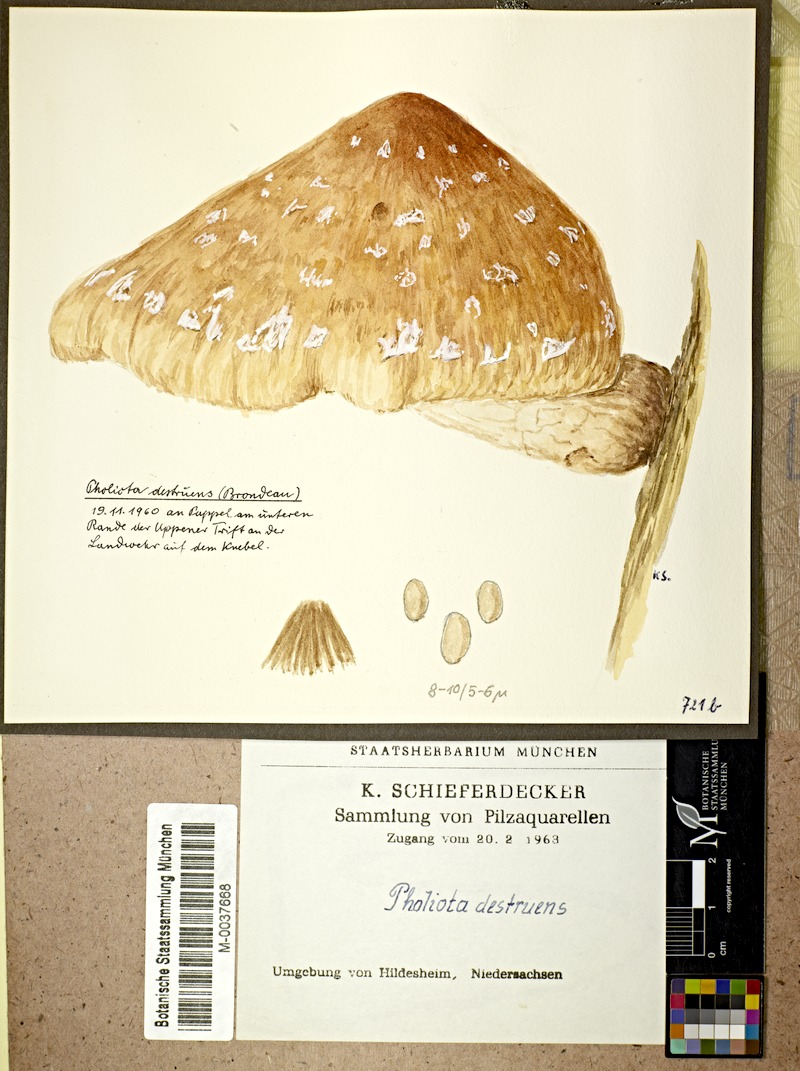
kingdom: Fungi
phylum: Basidiomycota
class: Agaricomycetes
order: Agaricales
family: Strophariaceae
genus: Pholiota
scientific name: Pholiota populnea
